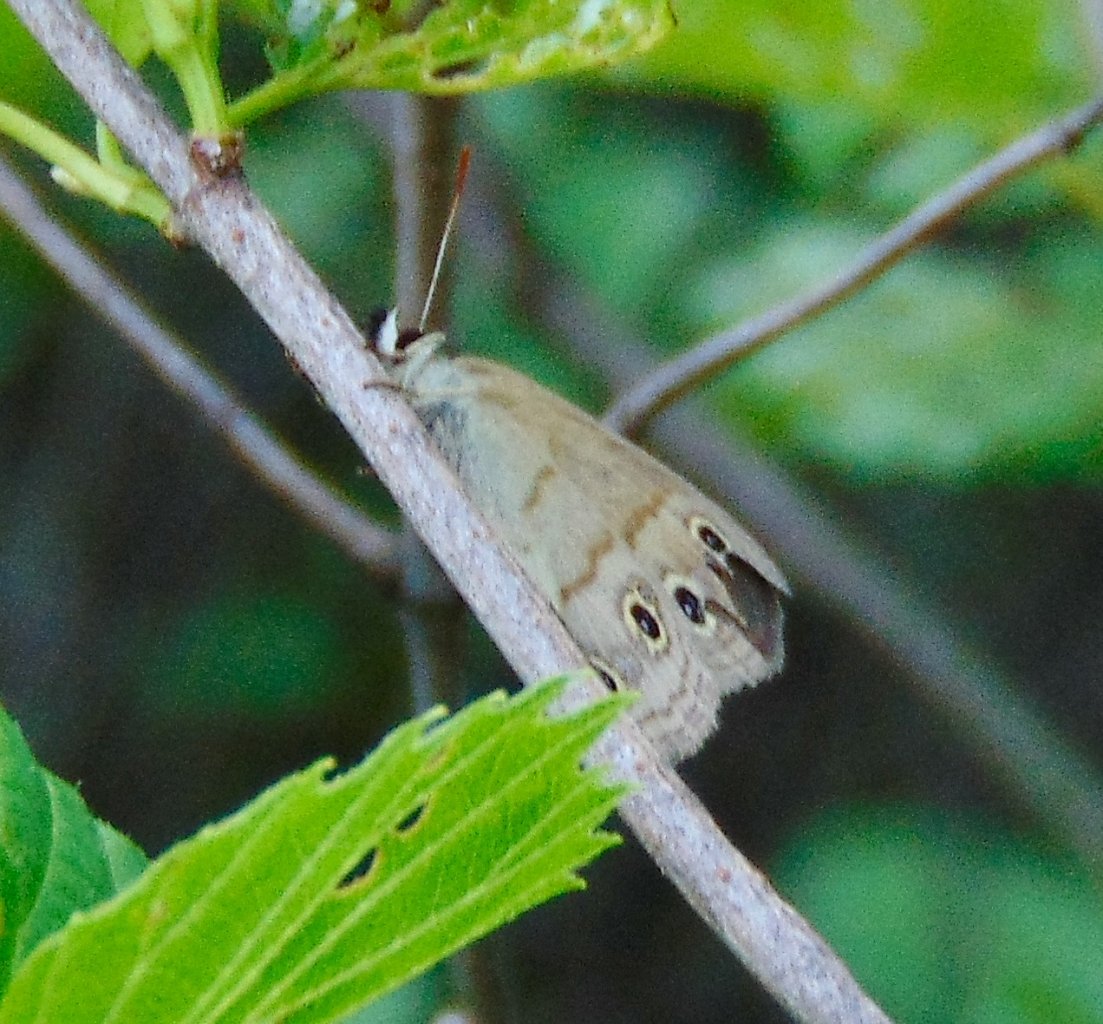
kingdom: Animalia
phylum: Arthropoda
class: Insecta
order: Lepidoptera
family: Nymphalidae
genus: Euptychia
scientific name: Euptychia cymela
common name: Little Wood Satyr
